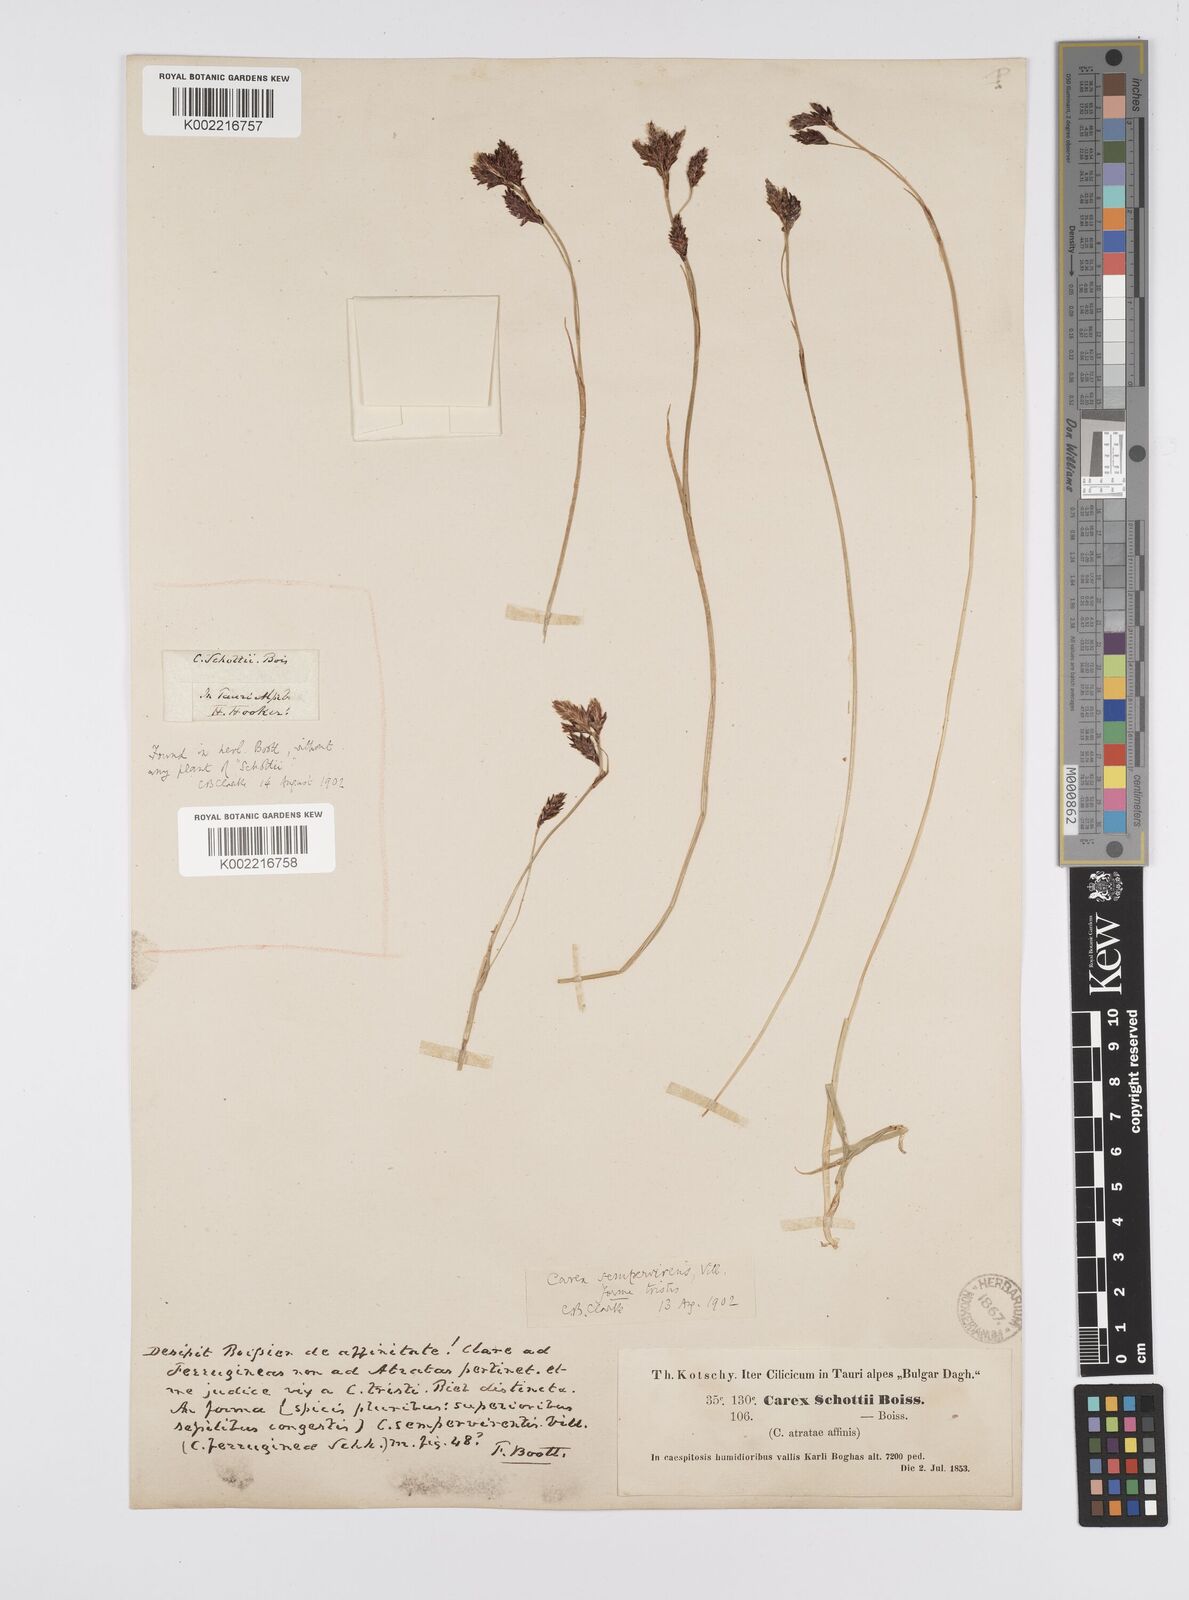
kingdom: Plantae
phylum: Tracheophyta
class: Liliopsida
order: Poales
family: Cyperaceae
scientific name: Cyperaceae
